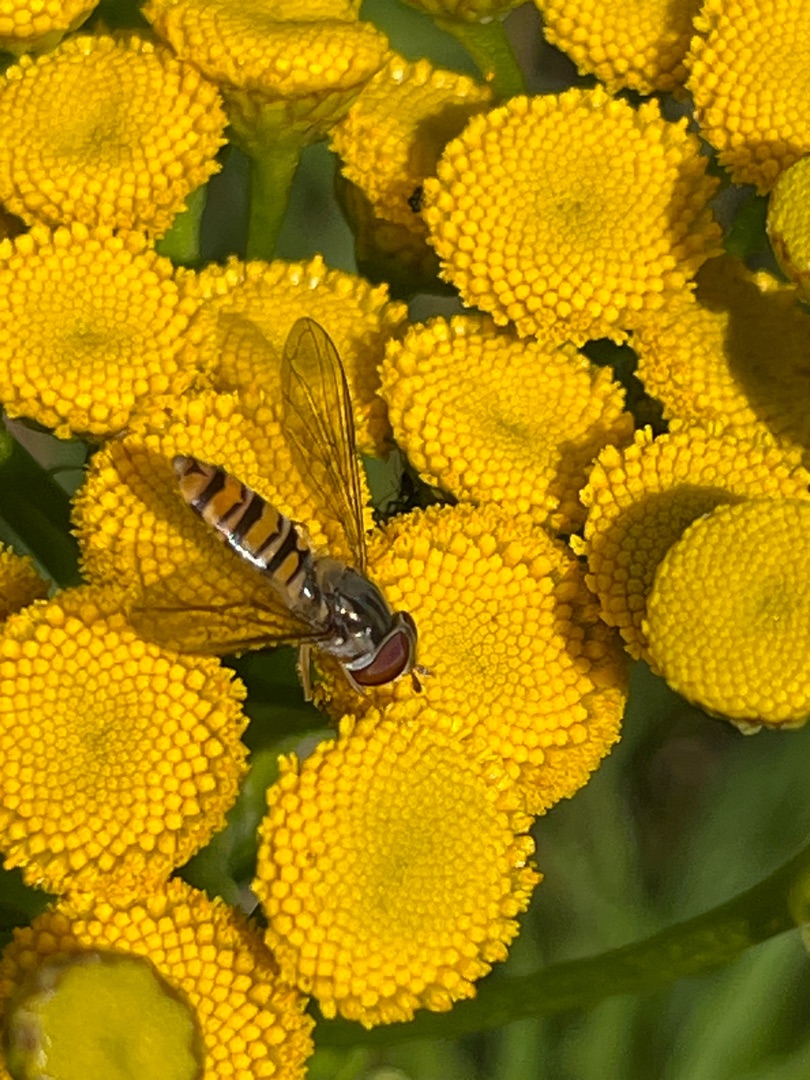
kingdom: Animalia
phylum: Arthropoda
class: Insecta
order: Diptera
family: Syrphidae
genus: Episyrphus
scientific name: Episyrphus balteatus
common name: Dobbeltbåndet svirreflue
